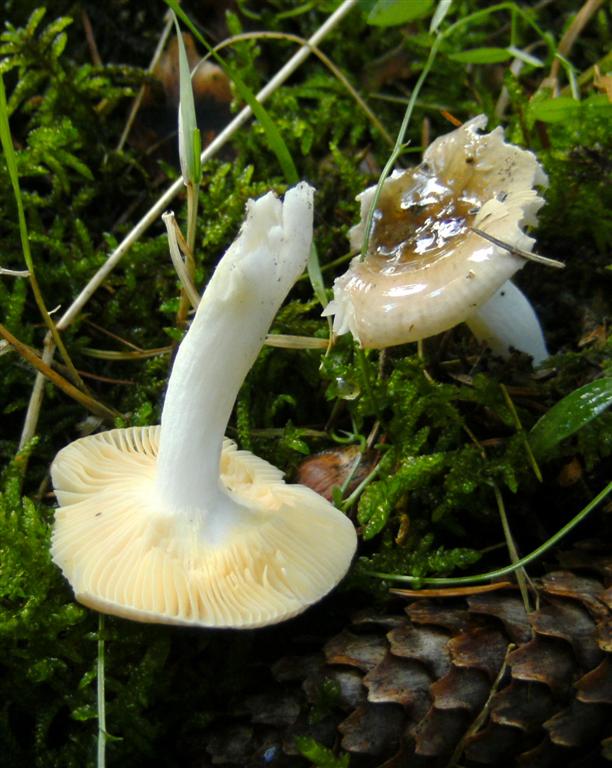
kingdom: Fungi
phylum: Basidiomycota
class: Agaricomycetes
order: Russulales
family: Russulaceae
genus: Russula
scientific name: Russula nauseosa
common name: spinkel skørhat
